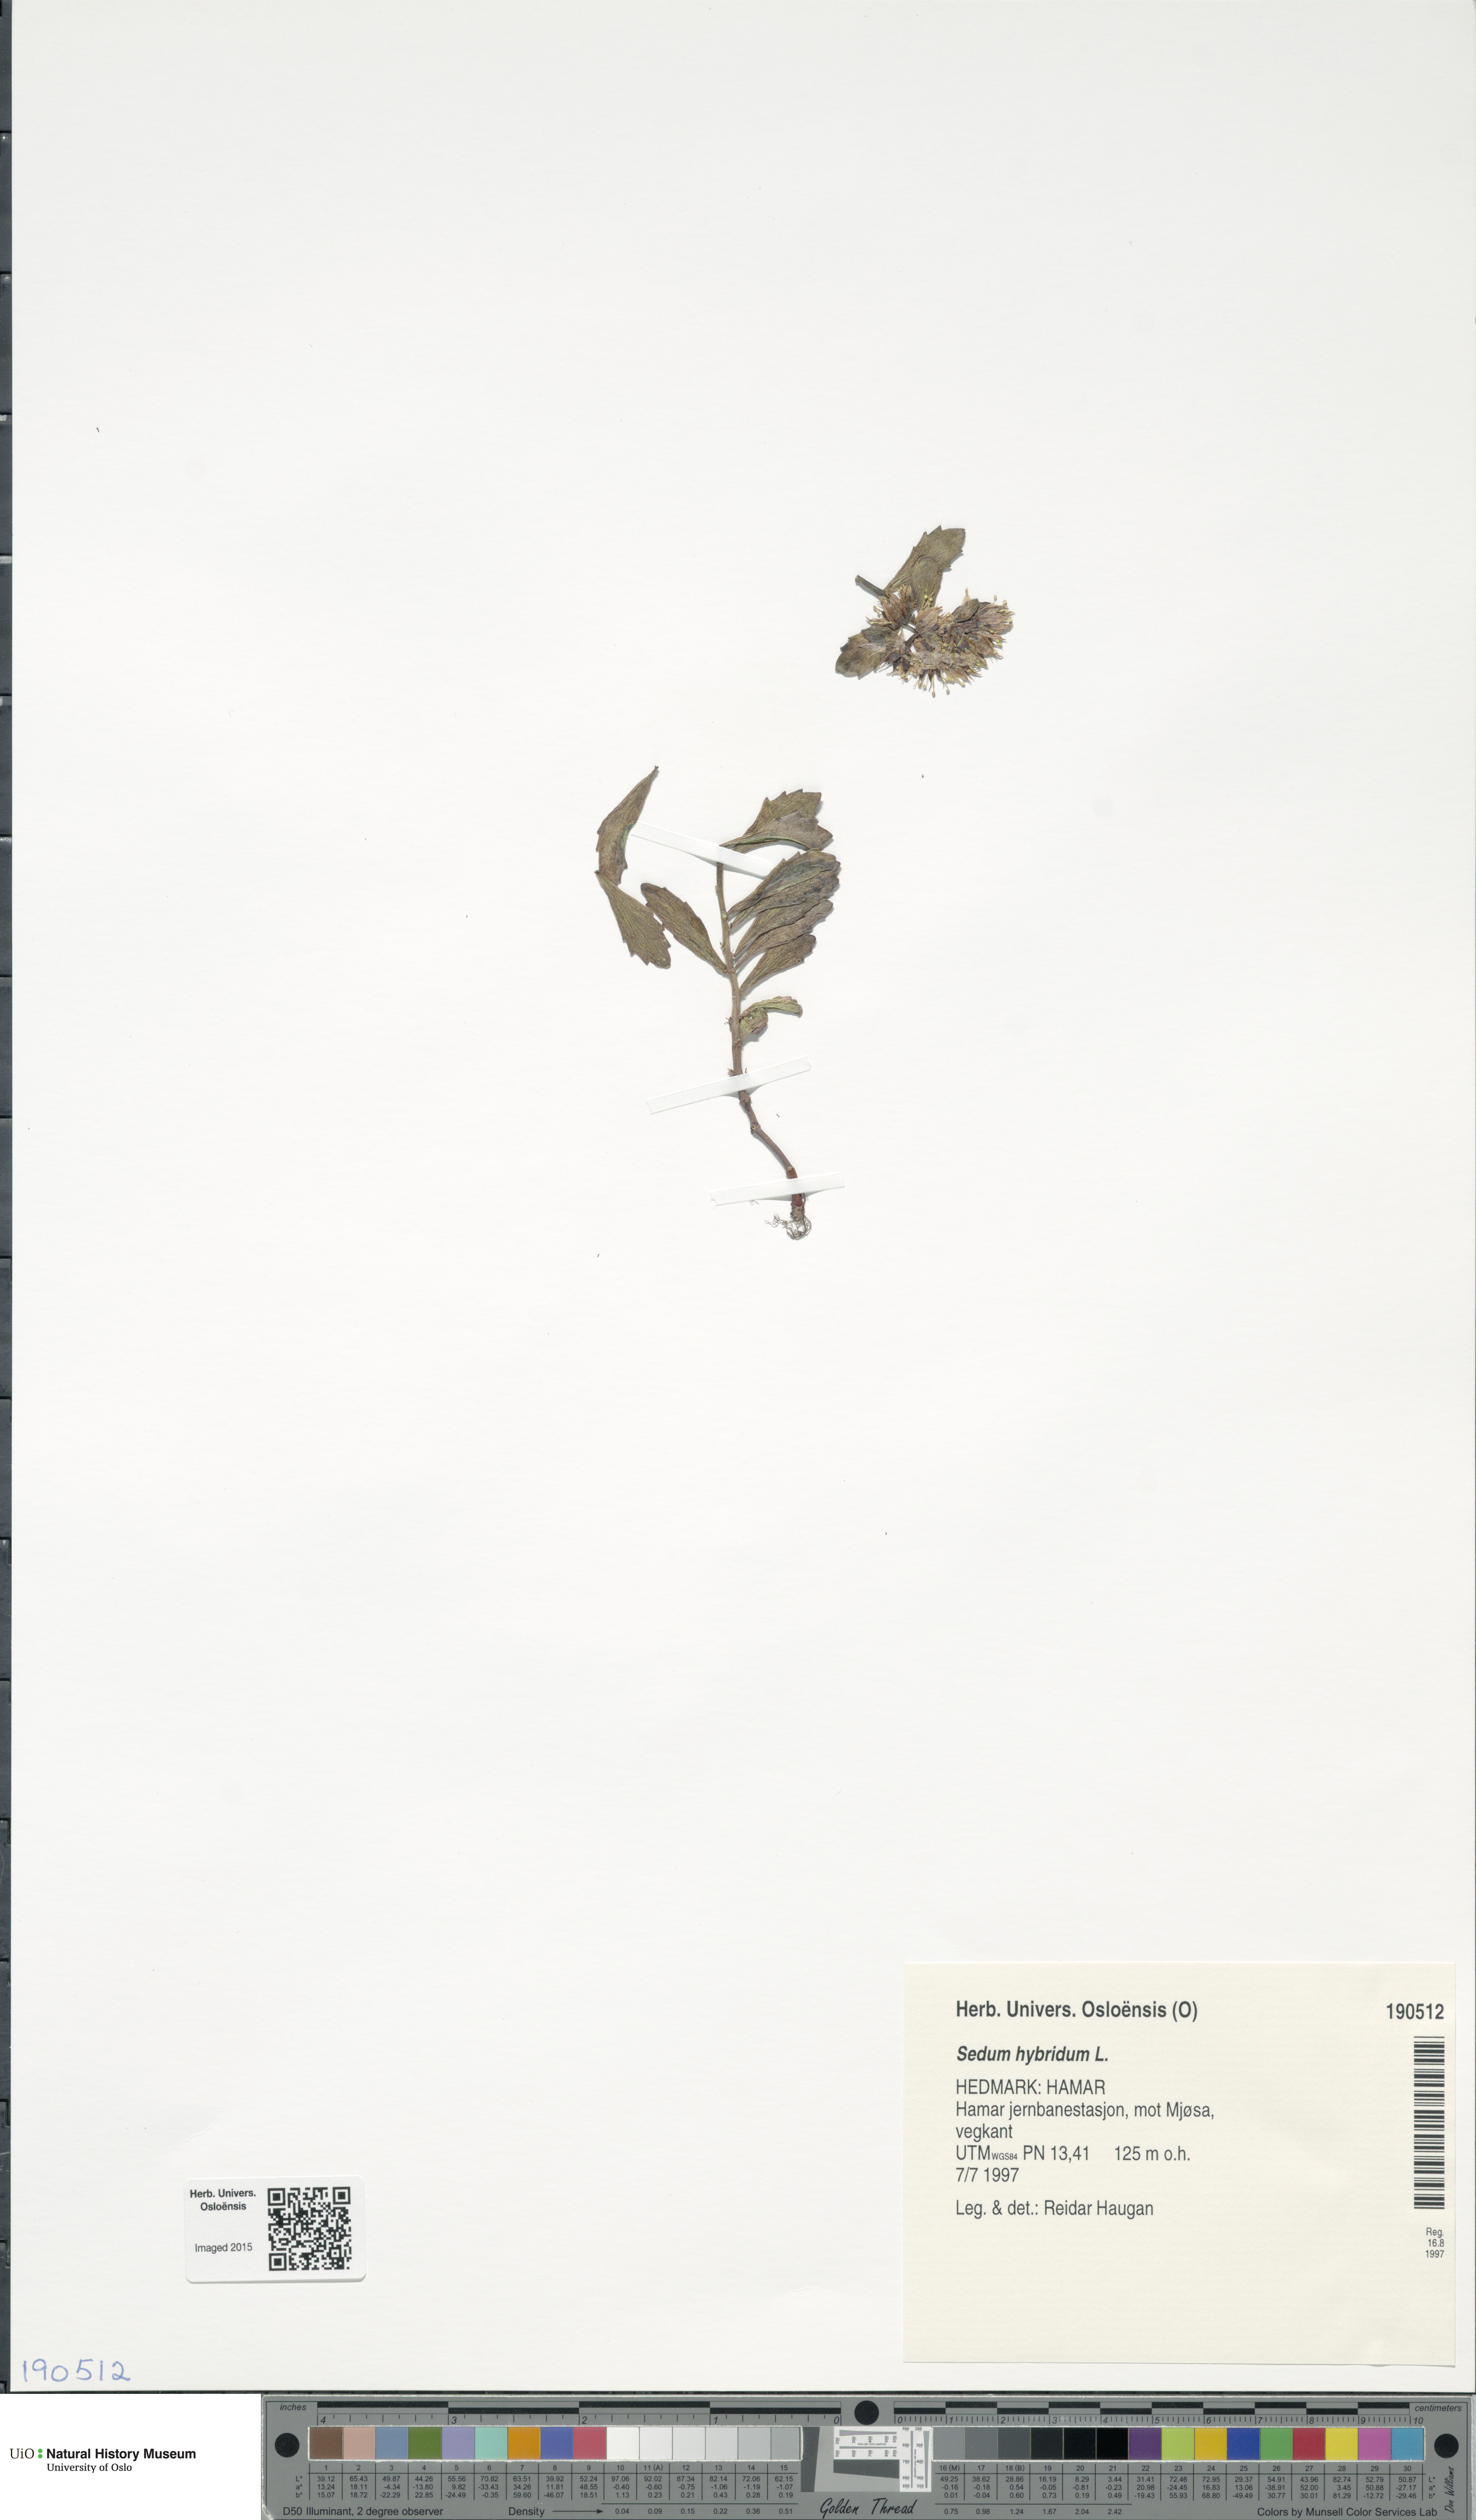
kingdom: Plantae
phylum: Tracheophyta
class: Magnoliopsida
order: Saxifragales
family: Crassulaceae
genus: Phedimus
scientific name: Phedimus hybridus
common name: Hybrid stonecrop
